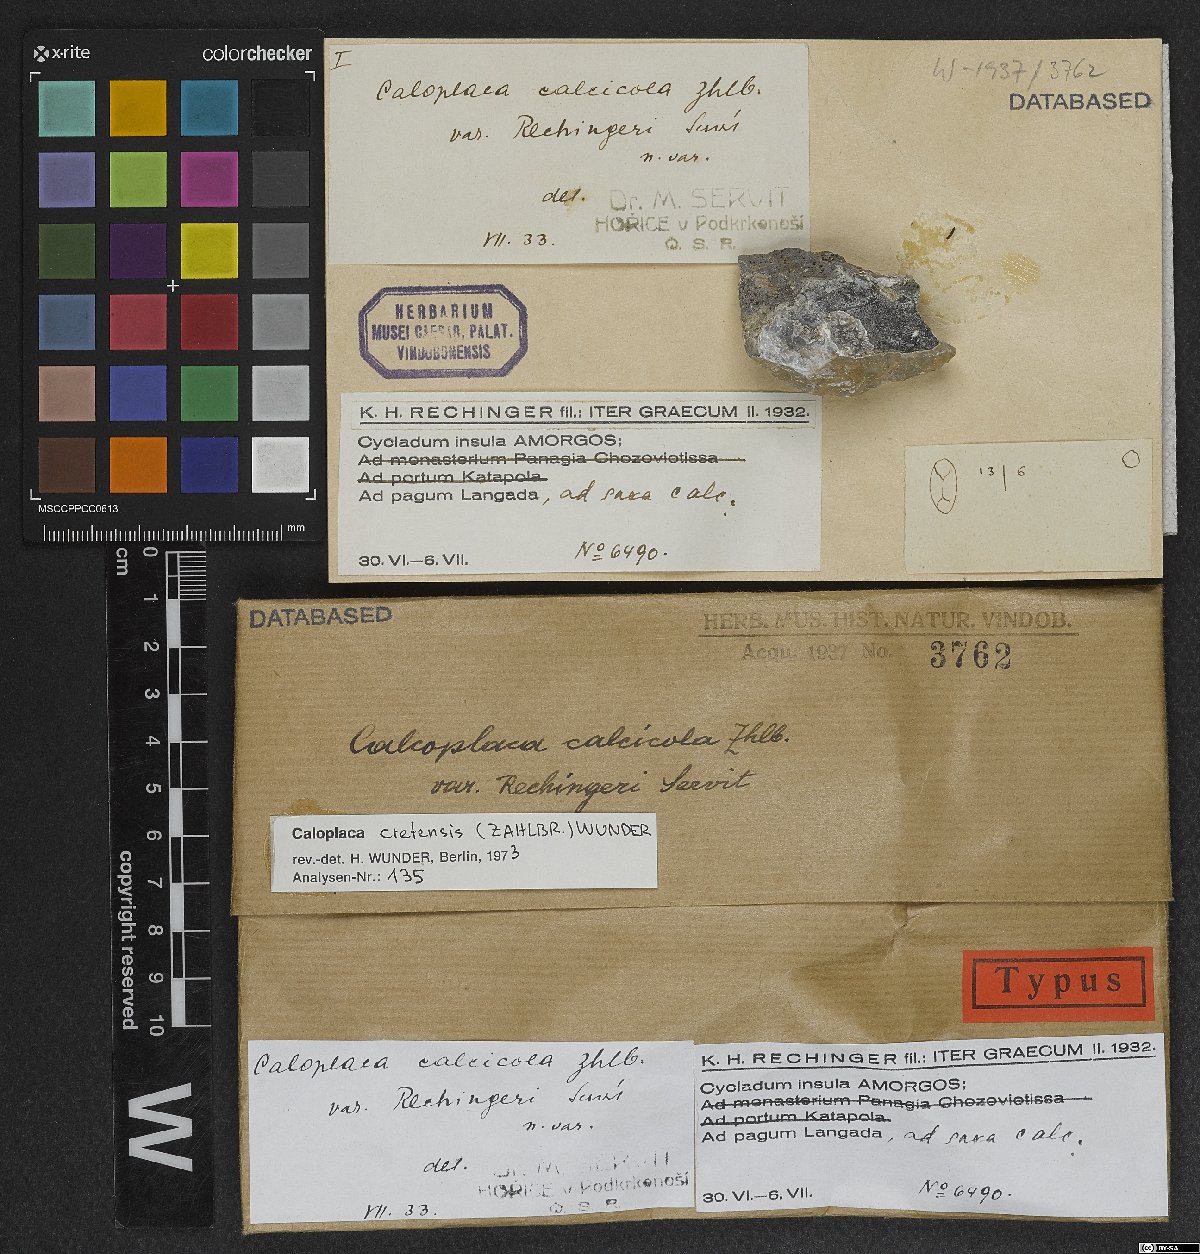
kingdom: Fungi
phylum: Ascomycota
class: Lecanoromycetes
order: Teloschistales
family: Teloschistaceae
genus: Kuettlingeria
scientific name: Kuettlingeria cretensis
